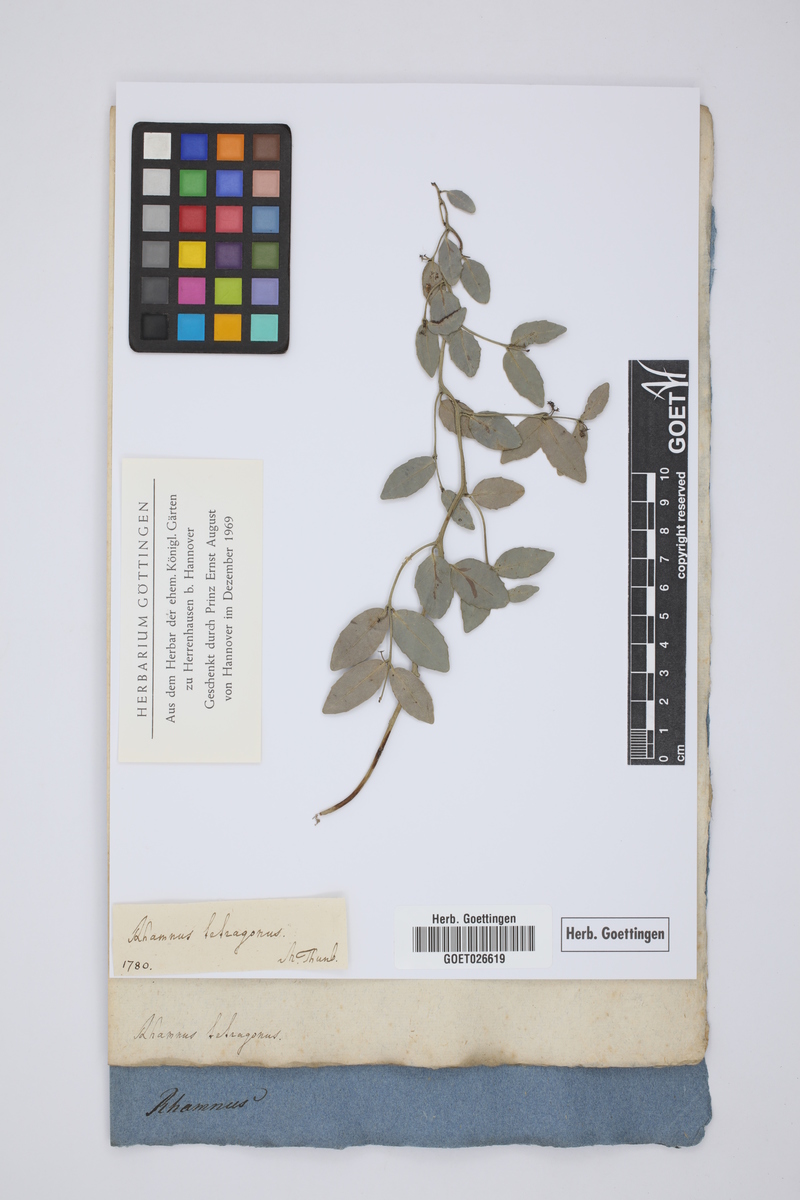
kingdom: Plantae
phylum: Tracheophyta
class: Magnoliopsida
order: Celastrales
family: Celastraceae
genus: Lauridia
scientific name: Lauridia tetragona
